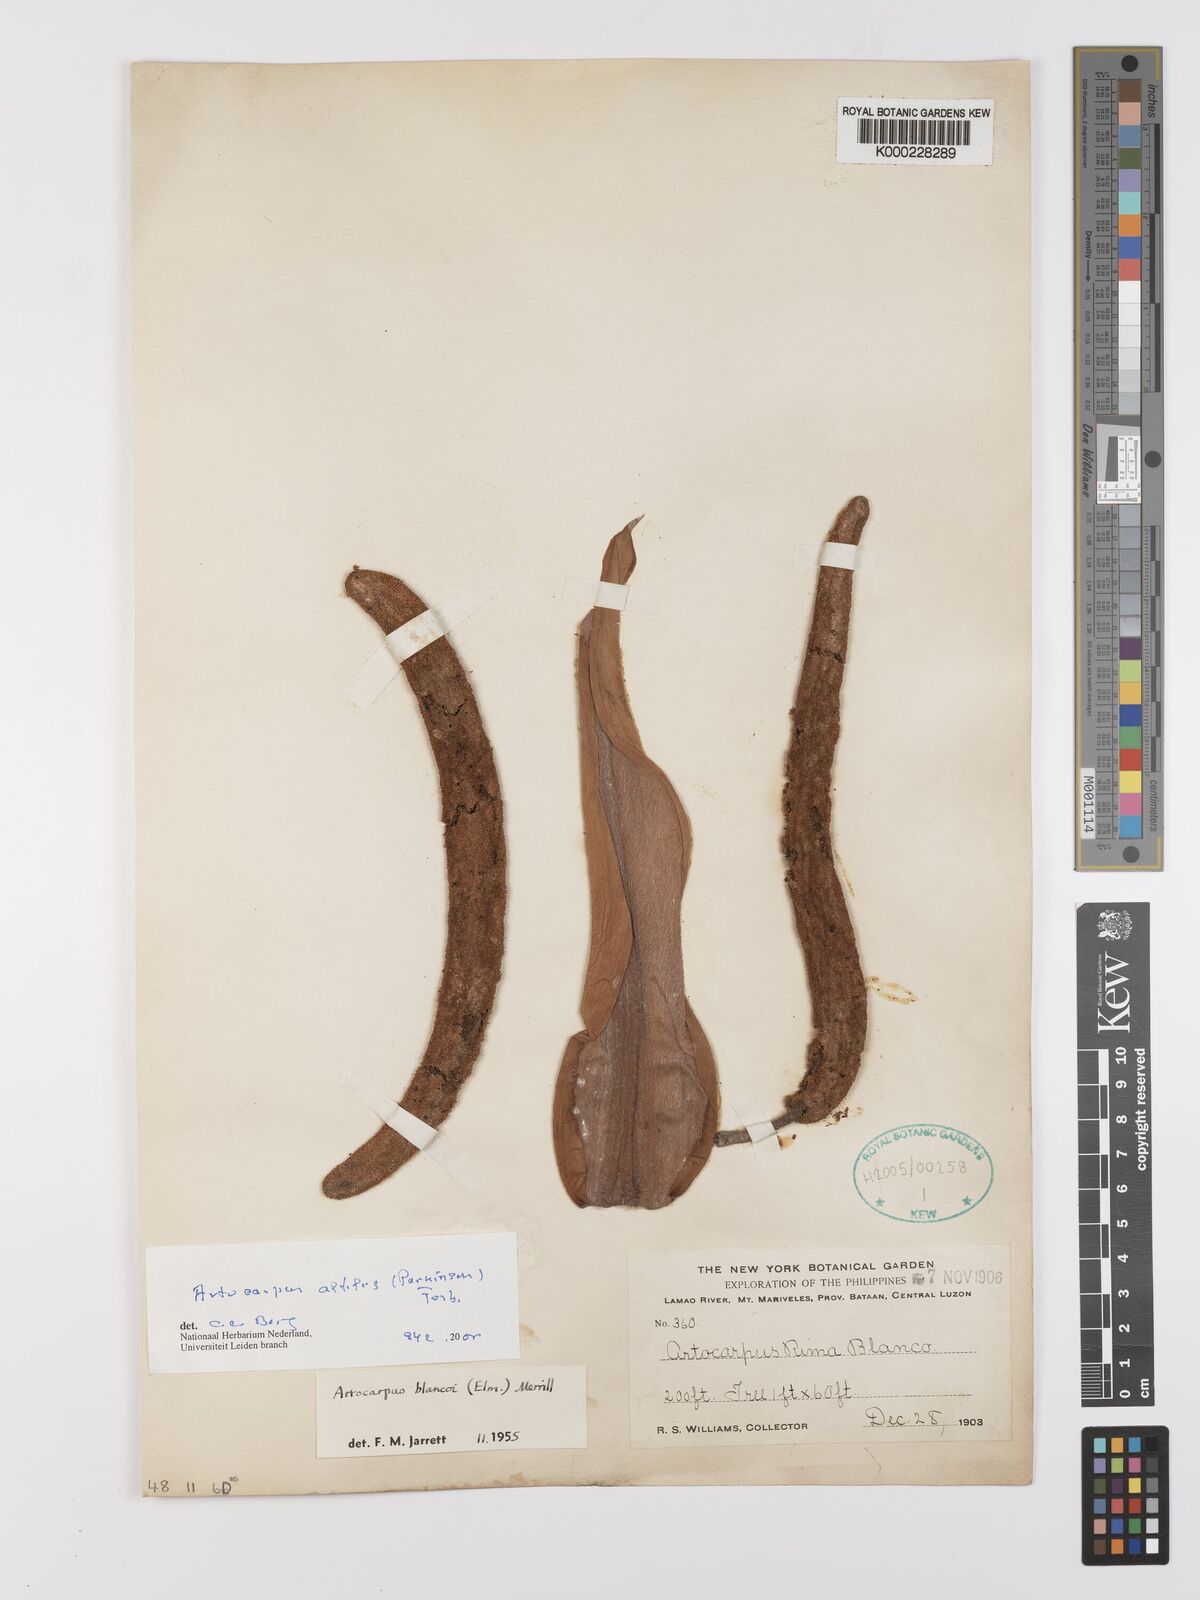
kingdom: Plantae
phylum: Tracheophyta
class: Magnoliopsida
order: Rosales
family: Moraceae
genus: Artocarpus
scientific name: Artocarpus altilis
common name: Breadfruit
